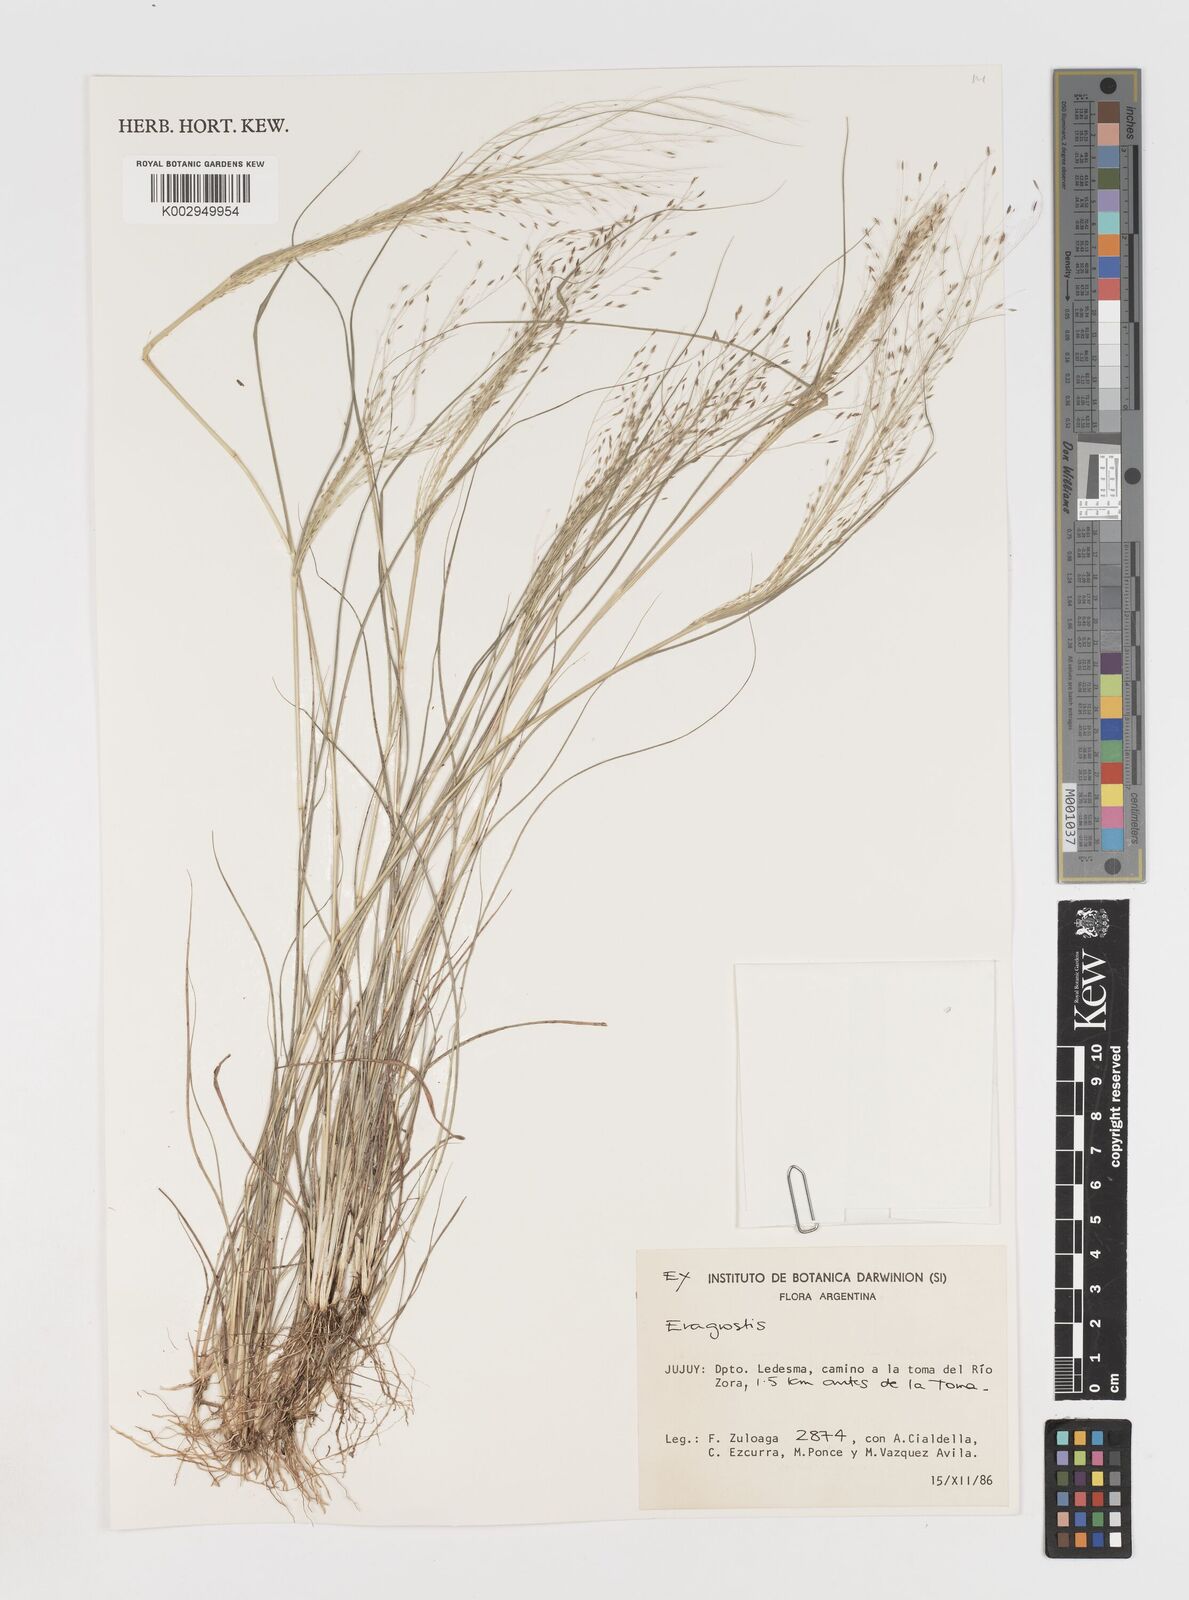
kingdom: Plantae
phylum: Tracheophyta
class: Liliopsida
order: Poales
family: Poaceae
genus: Eragrostis
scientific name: Eragrostis
